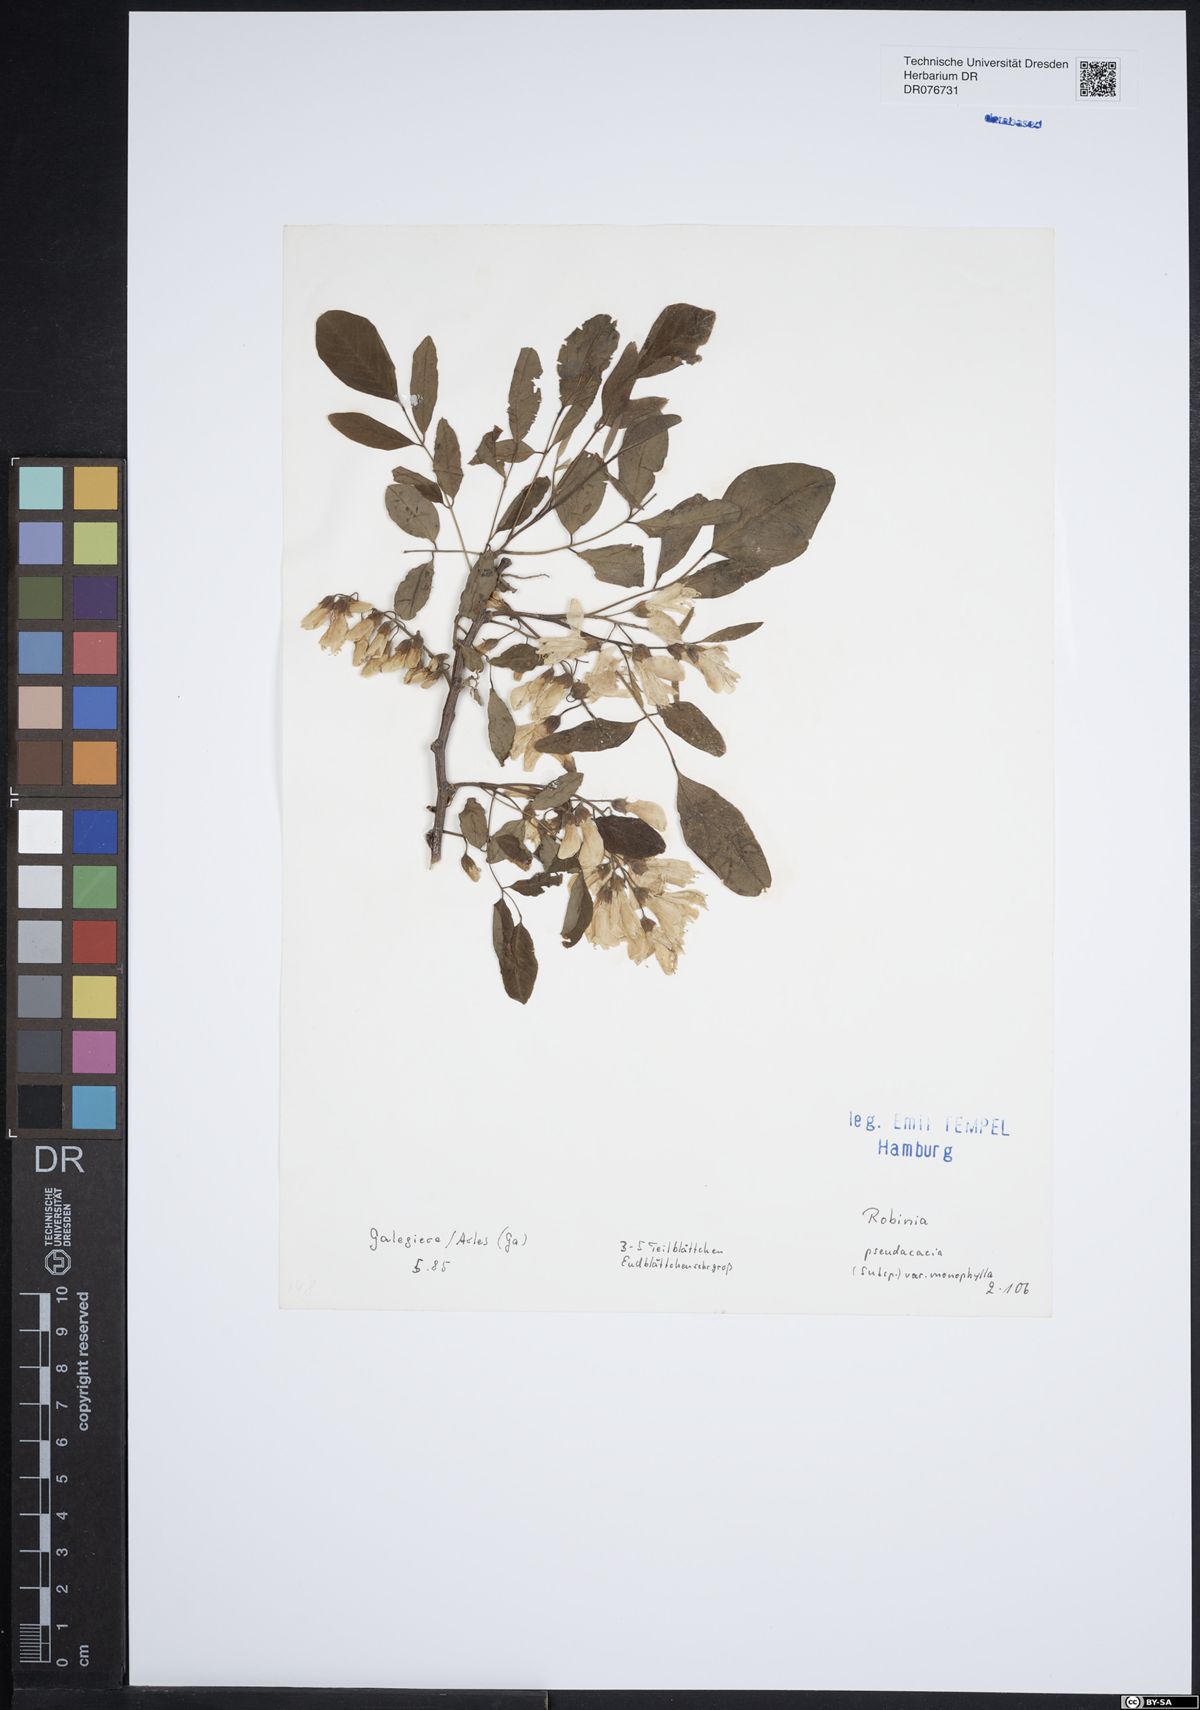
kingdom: Plantae
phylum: Tracheophyta
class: Magnoliopsida
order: Fabales
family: Fabaceae
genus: Robinia
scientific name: Robinia pseudoacacia
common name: Black locust
